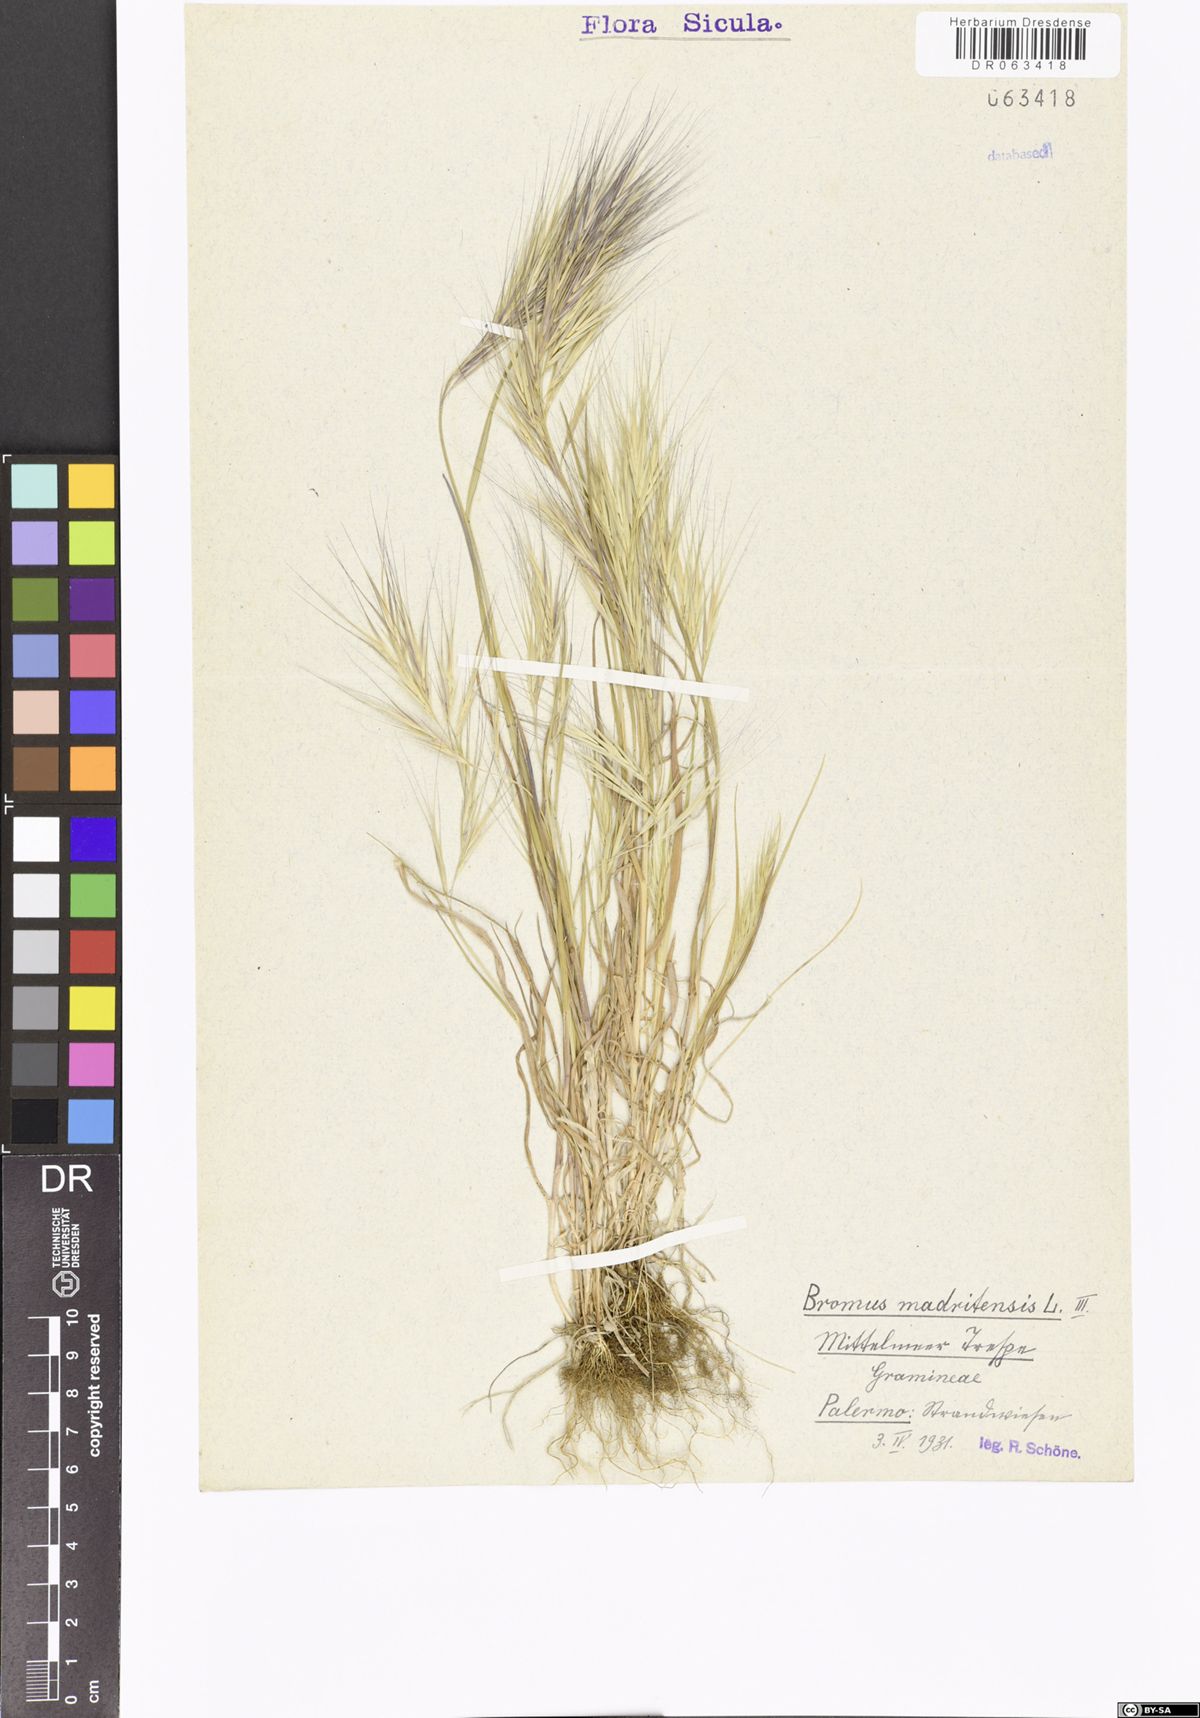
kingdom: Plantae
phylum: Tracheophyta
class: Liliopsida
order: Poales
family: Poaceae
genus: Bromus
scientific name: Bromus madritensis
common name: Compact brome
